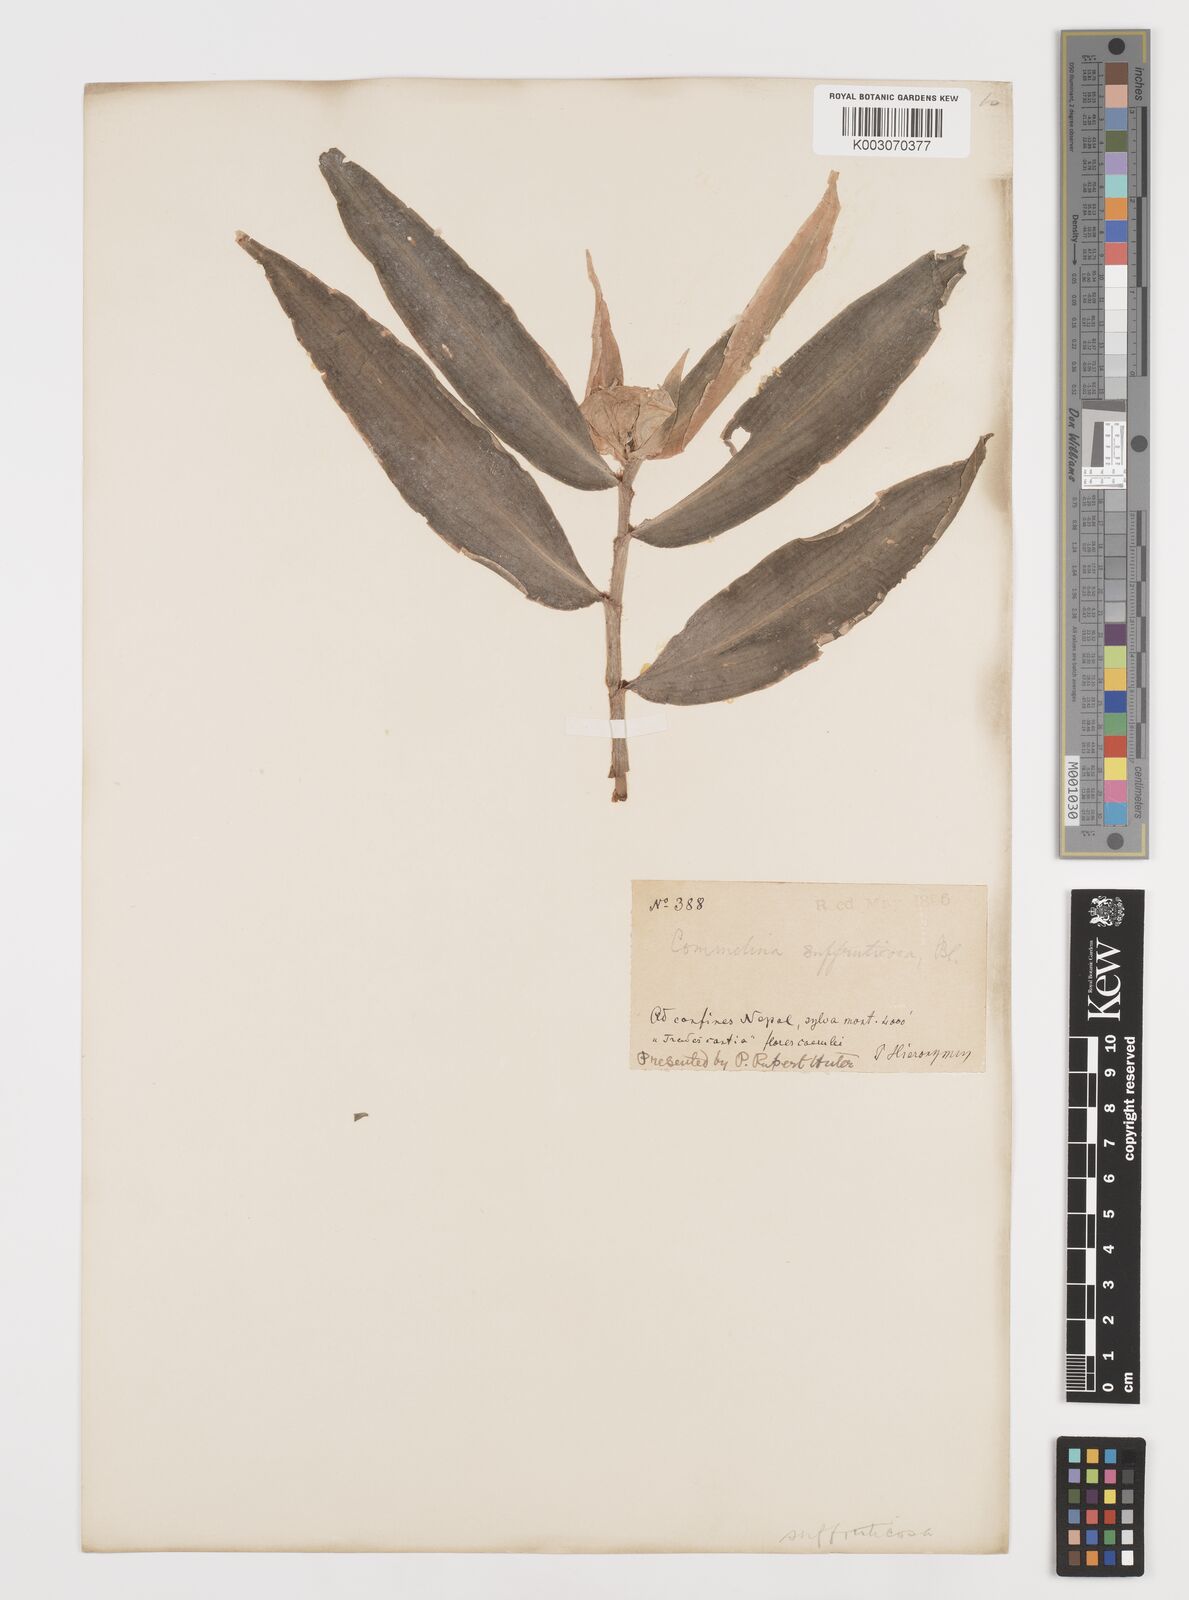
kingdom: Plantae
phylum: Tracheophyta
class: Liliopsida
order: Commelinales
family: Commelinaceae
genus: Commelina
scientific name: Commelina suffruticosa
